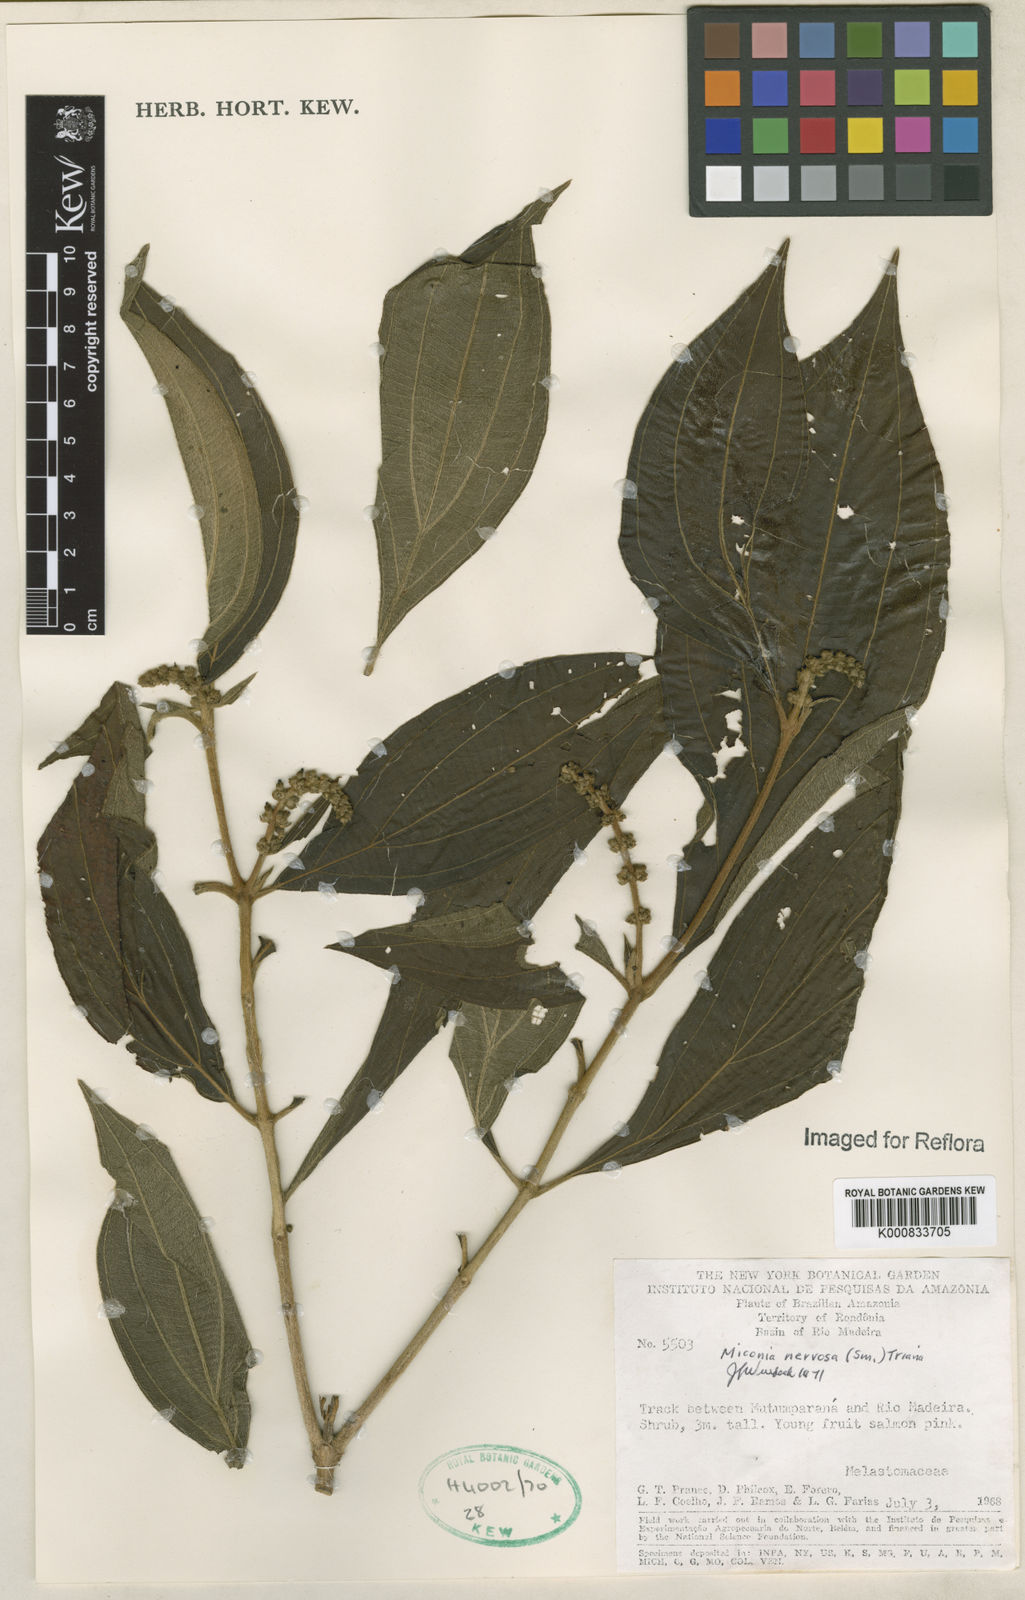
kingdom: Plantae
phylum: Tracheophyta
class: Magnoliopsida
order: Myrtales
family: Melastomataceae
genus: Miconia
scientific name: Miconia nervosa
